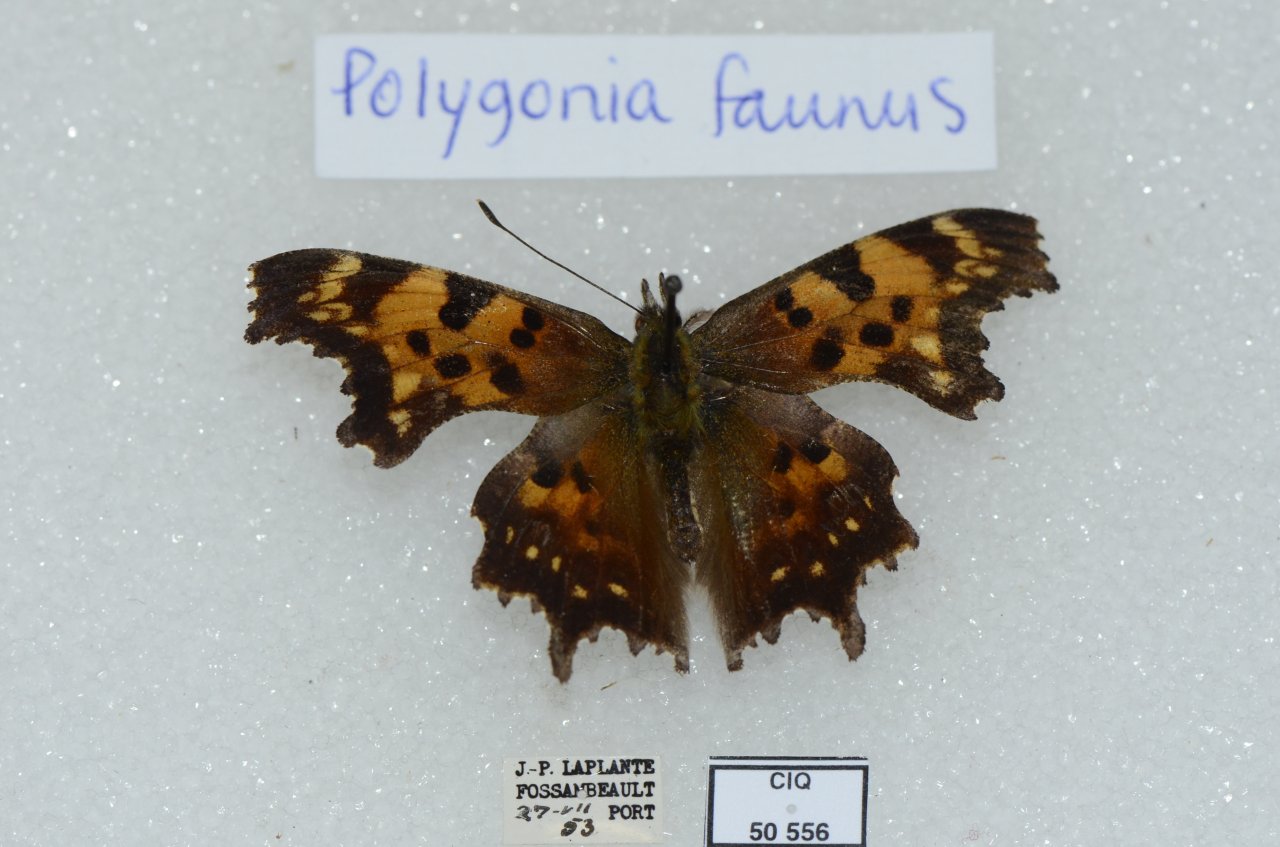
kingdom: Animalia
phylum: Arthropoda
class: Insecta
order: Lepidoptera
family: Nymphalidae
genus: Polygonia
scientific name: Polygonia faunus
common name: Green Comma
